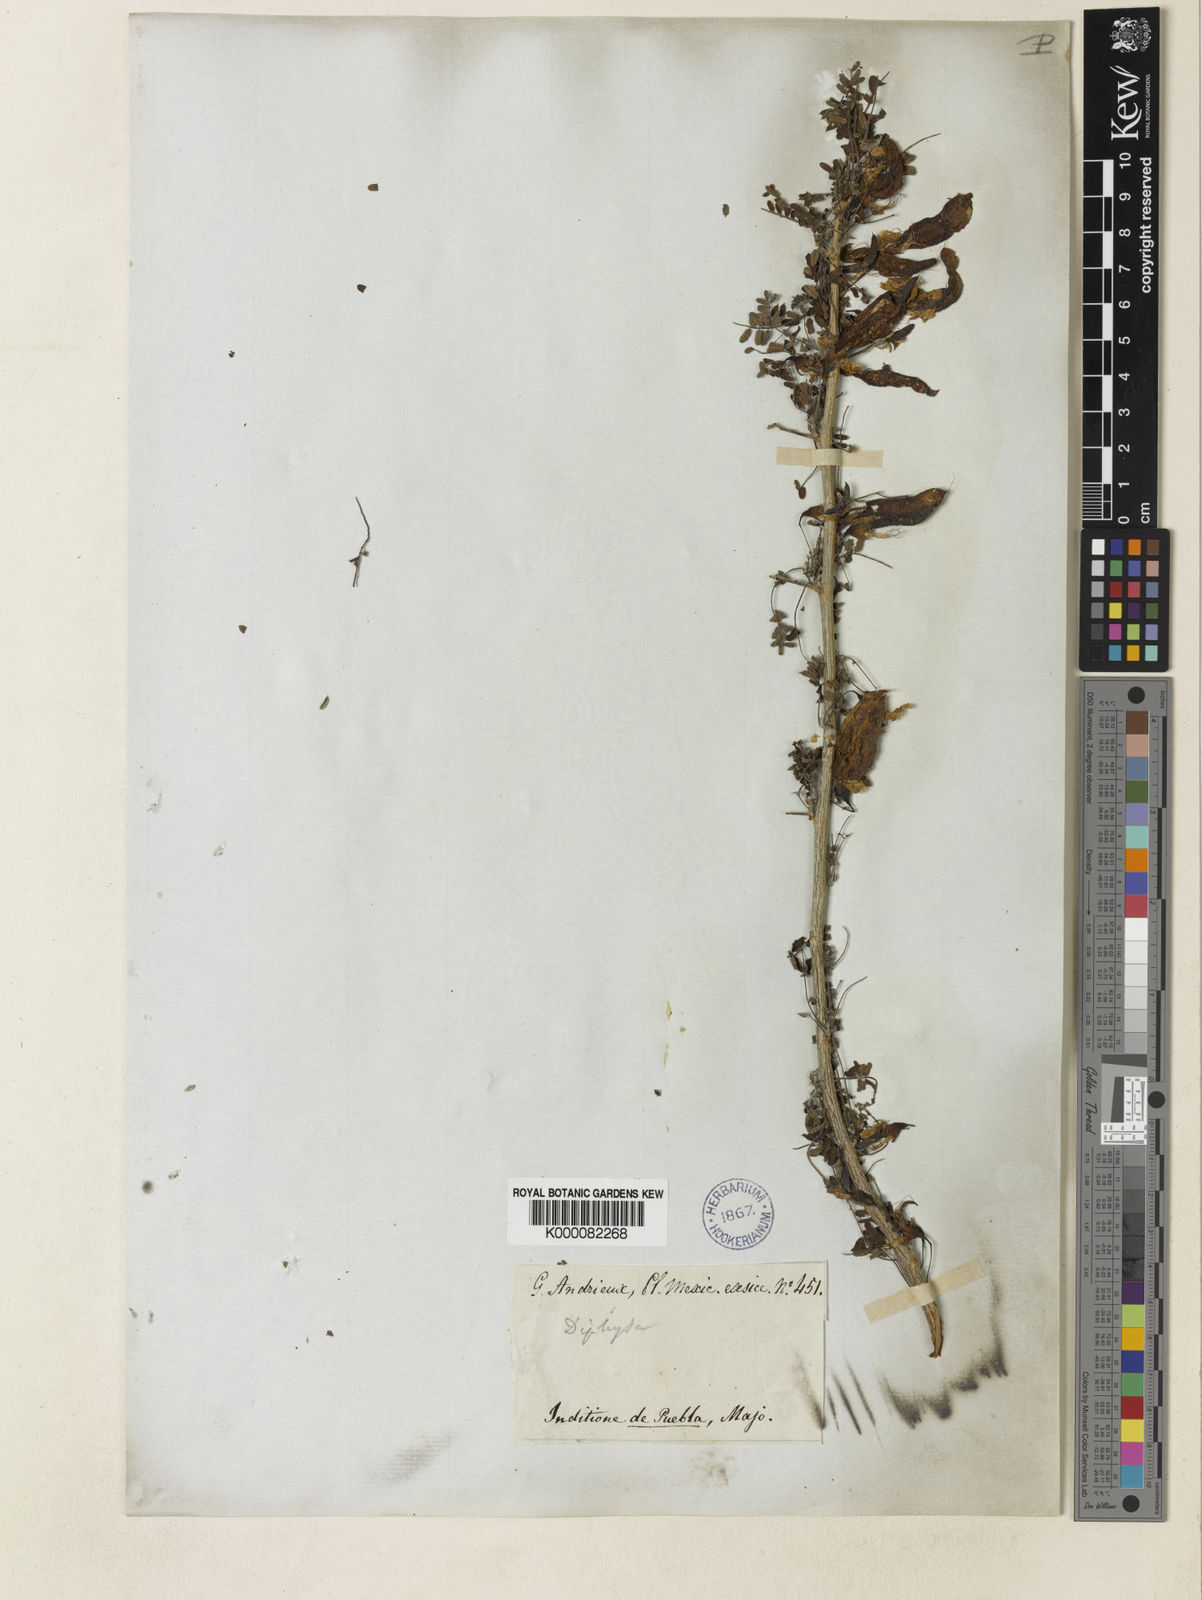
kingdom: Plantae
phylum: Tracheophyta
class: Magnoliopsida
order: Fabales
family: Fabaceae
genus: Diphysa
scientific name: Diphysa
